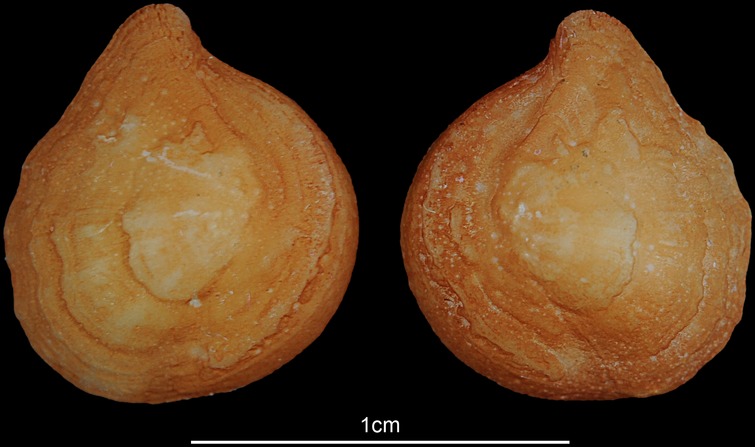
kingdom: Animalia
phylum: Chordata
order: Siluriformes
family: Ariidae
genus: Netuma
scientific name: Netuma thalassina
